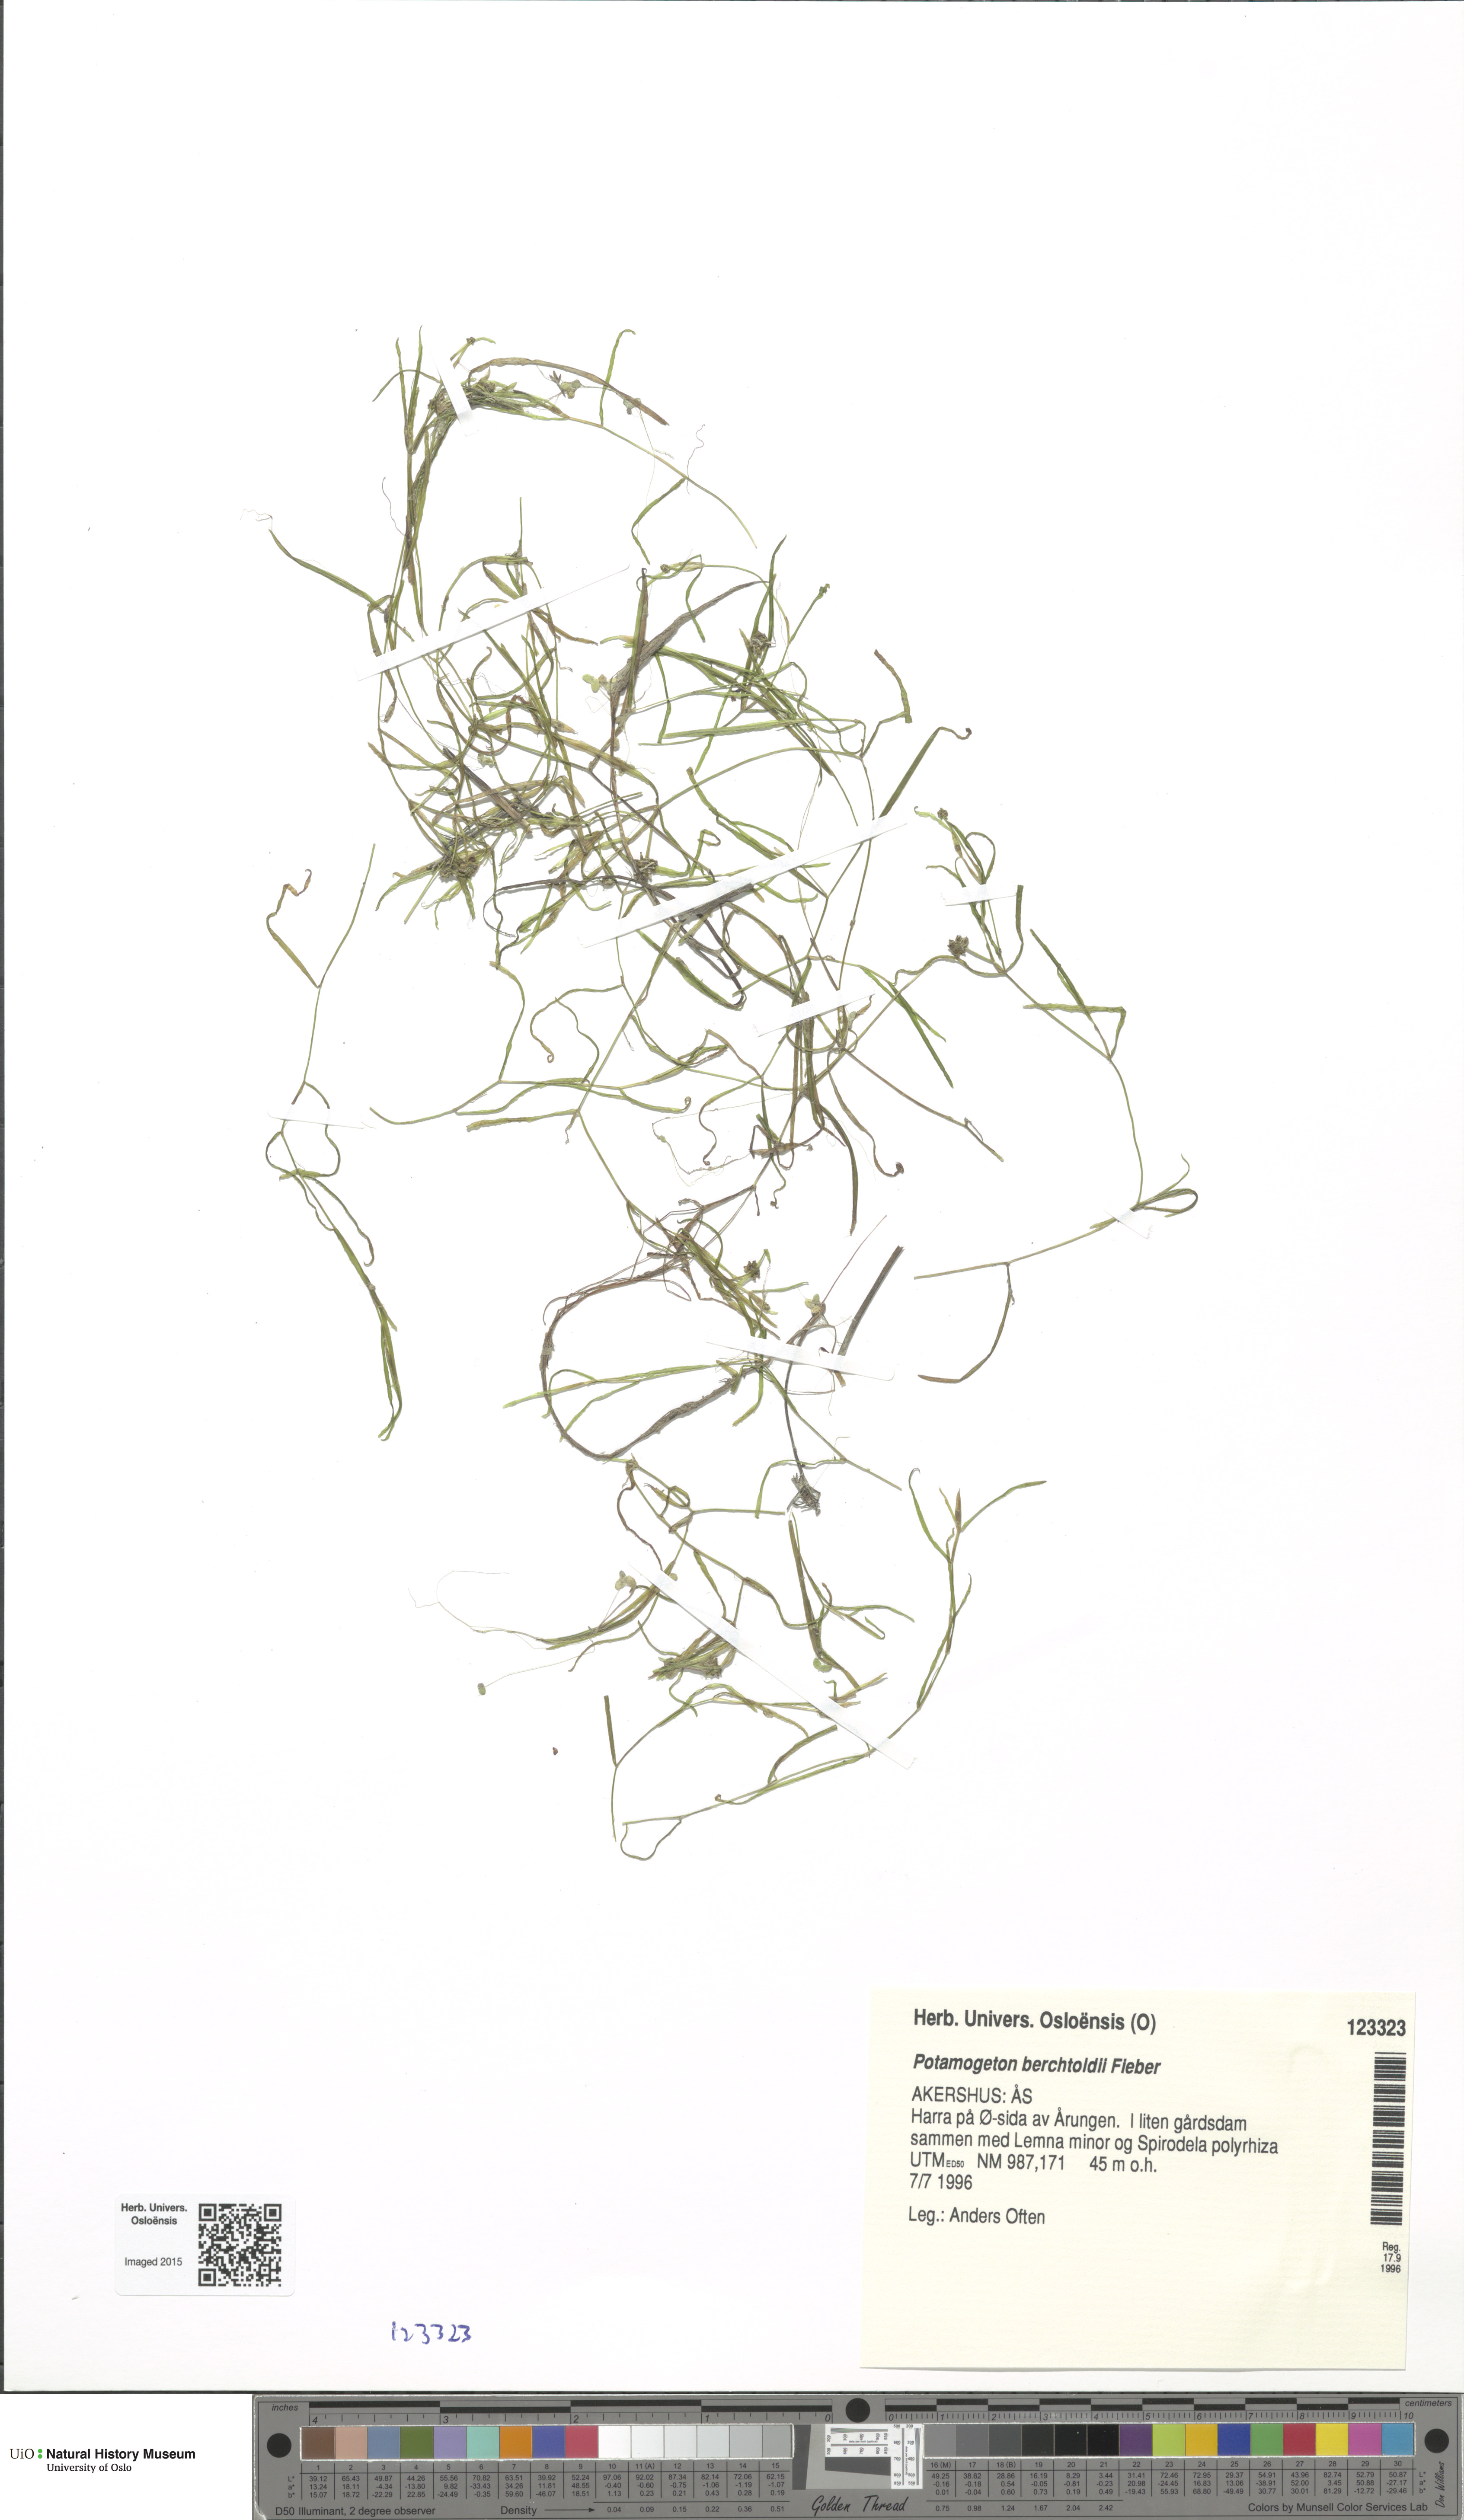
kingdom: Plantae
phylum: Tracheophyta
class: Liliopsida
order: Alismatales
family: Potamogetonaceae
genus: Potamogeton
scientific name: Potamogeton berchtoldii
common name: Small pondweed
